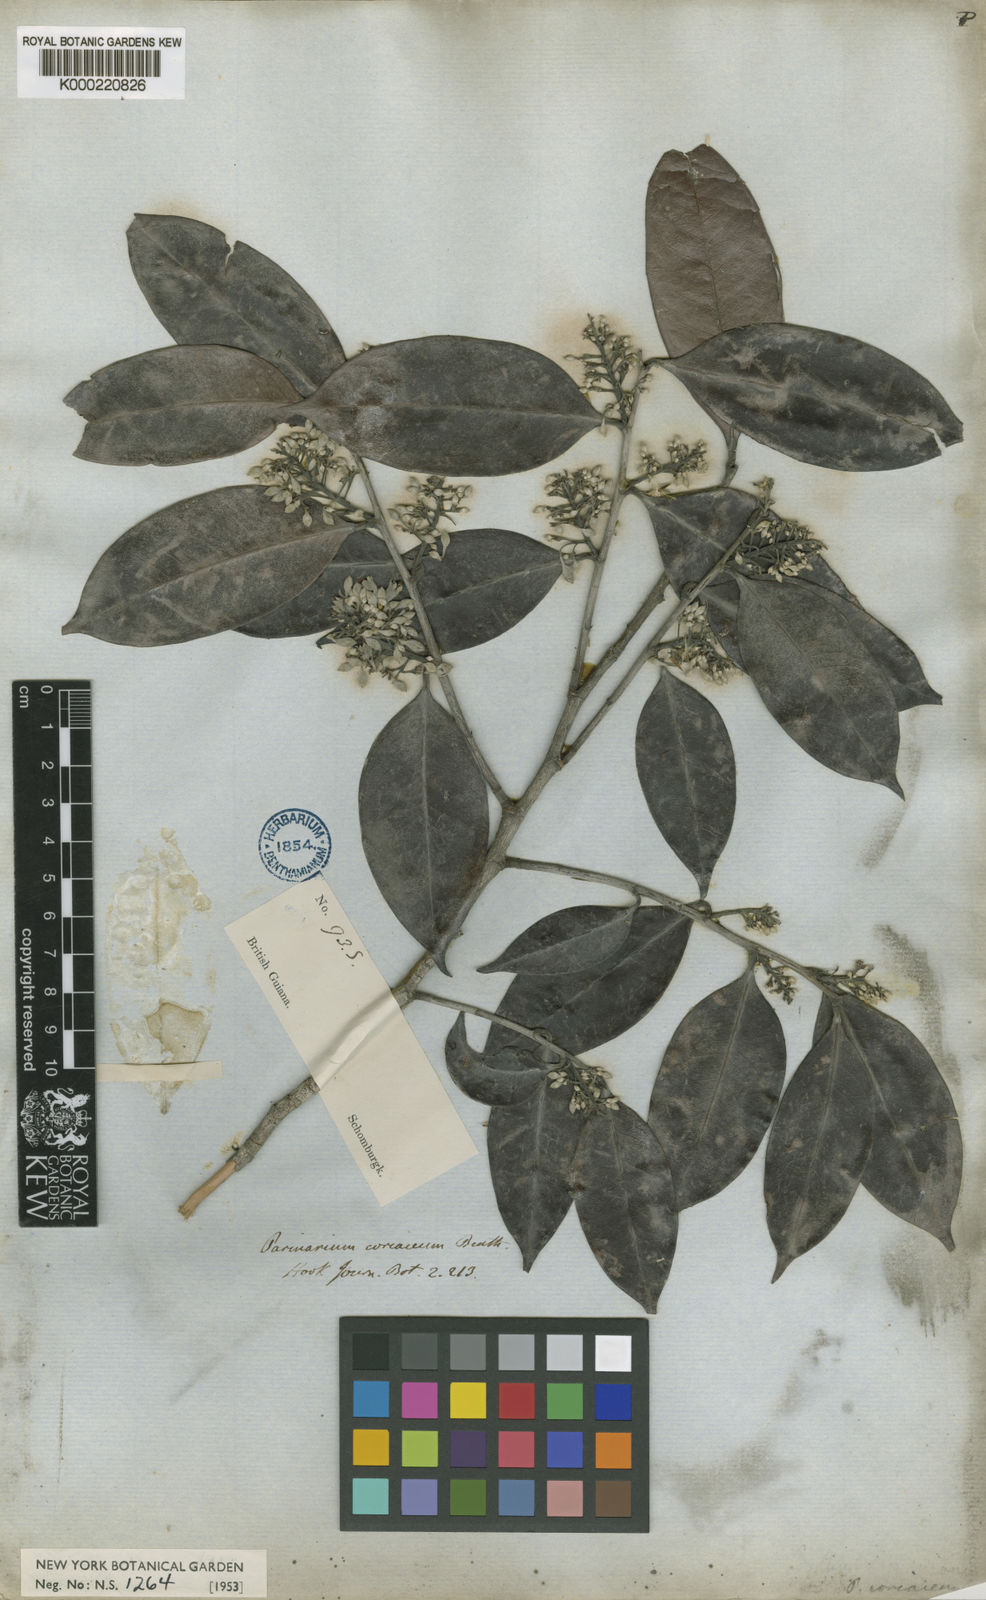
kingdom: Plantae
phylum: Tracheophyta
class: Magnoliopsida
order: Malpighiales
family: Chrysobalanaceae
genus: Exellodendron
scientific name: Exellodendron coriaceum
